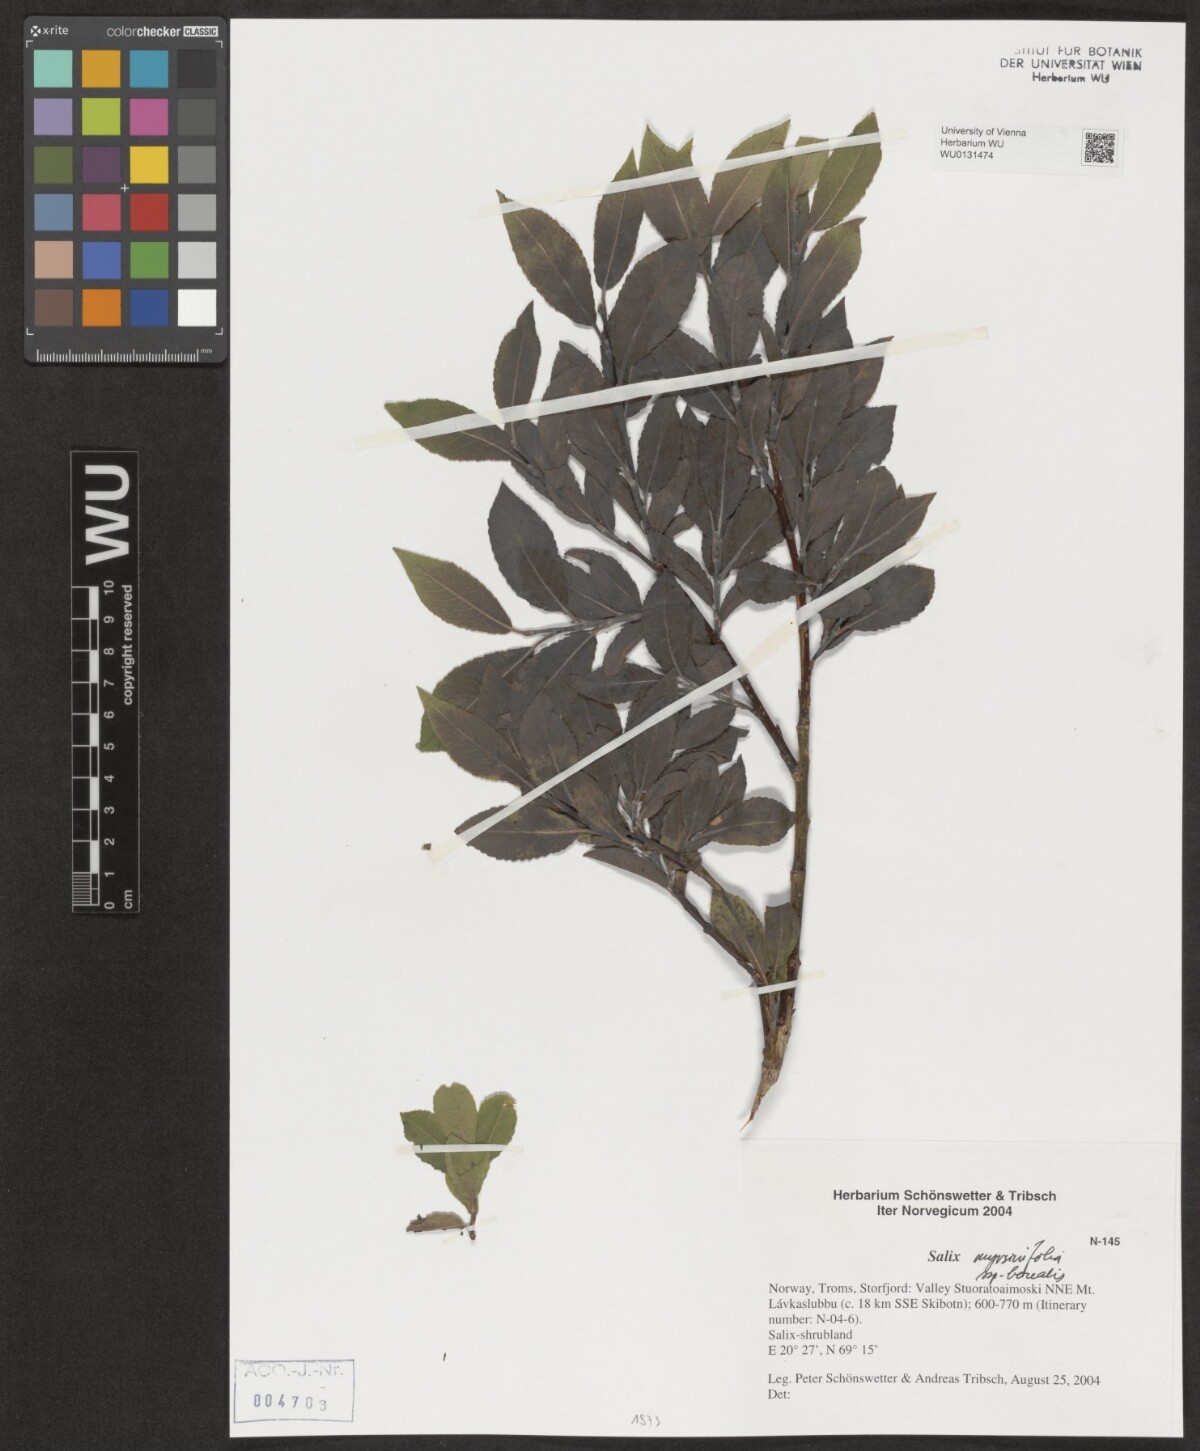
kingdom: Plantae
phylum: Tracheophyta
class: Magnoliopsida
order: Malpighiales
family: Salicaceae
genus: Salix
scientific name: Salix myrsinifolia
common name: Dark-leaved willow
